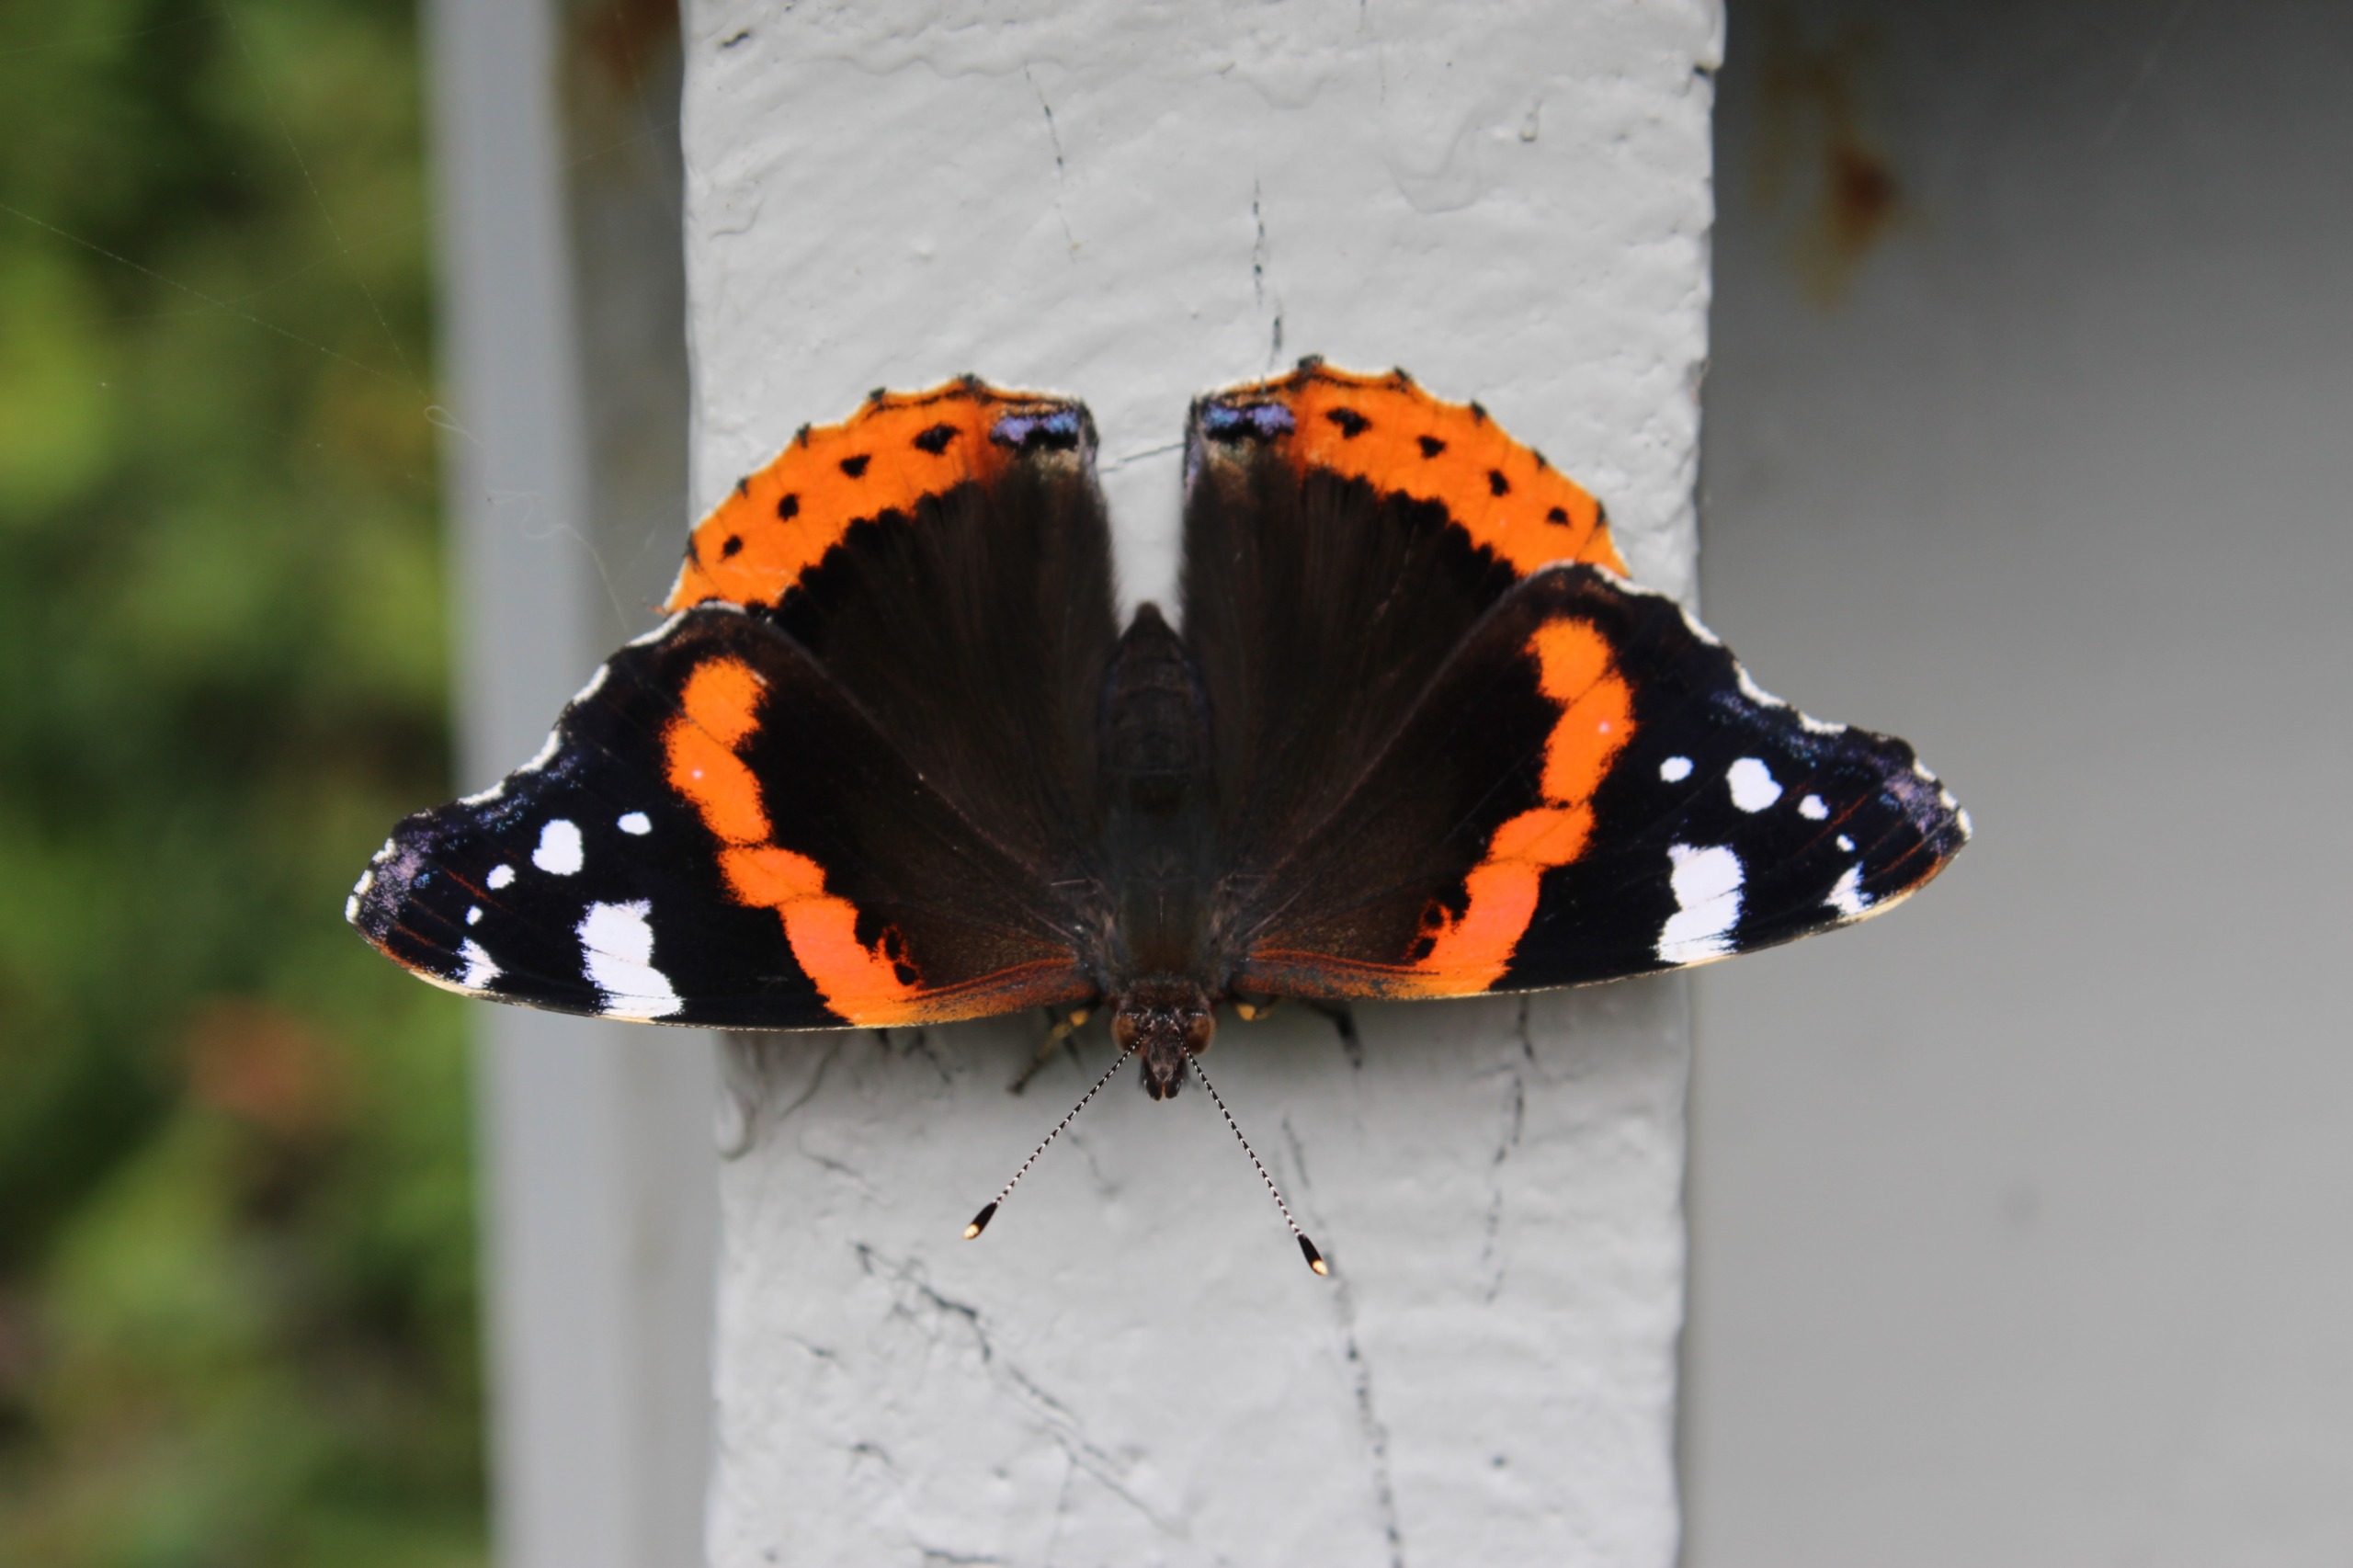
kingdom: Animalia
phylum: Arthropoda
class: Insecta
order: Lepidoptera
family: Nymphalidae
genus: Vanessa
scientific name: Vanessa atalanta
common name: Admiral
